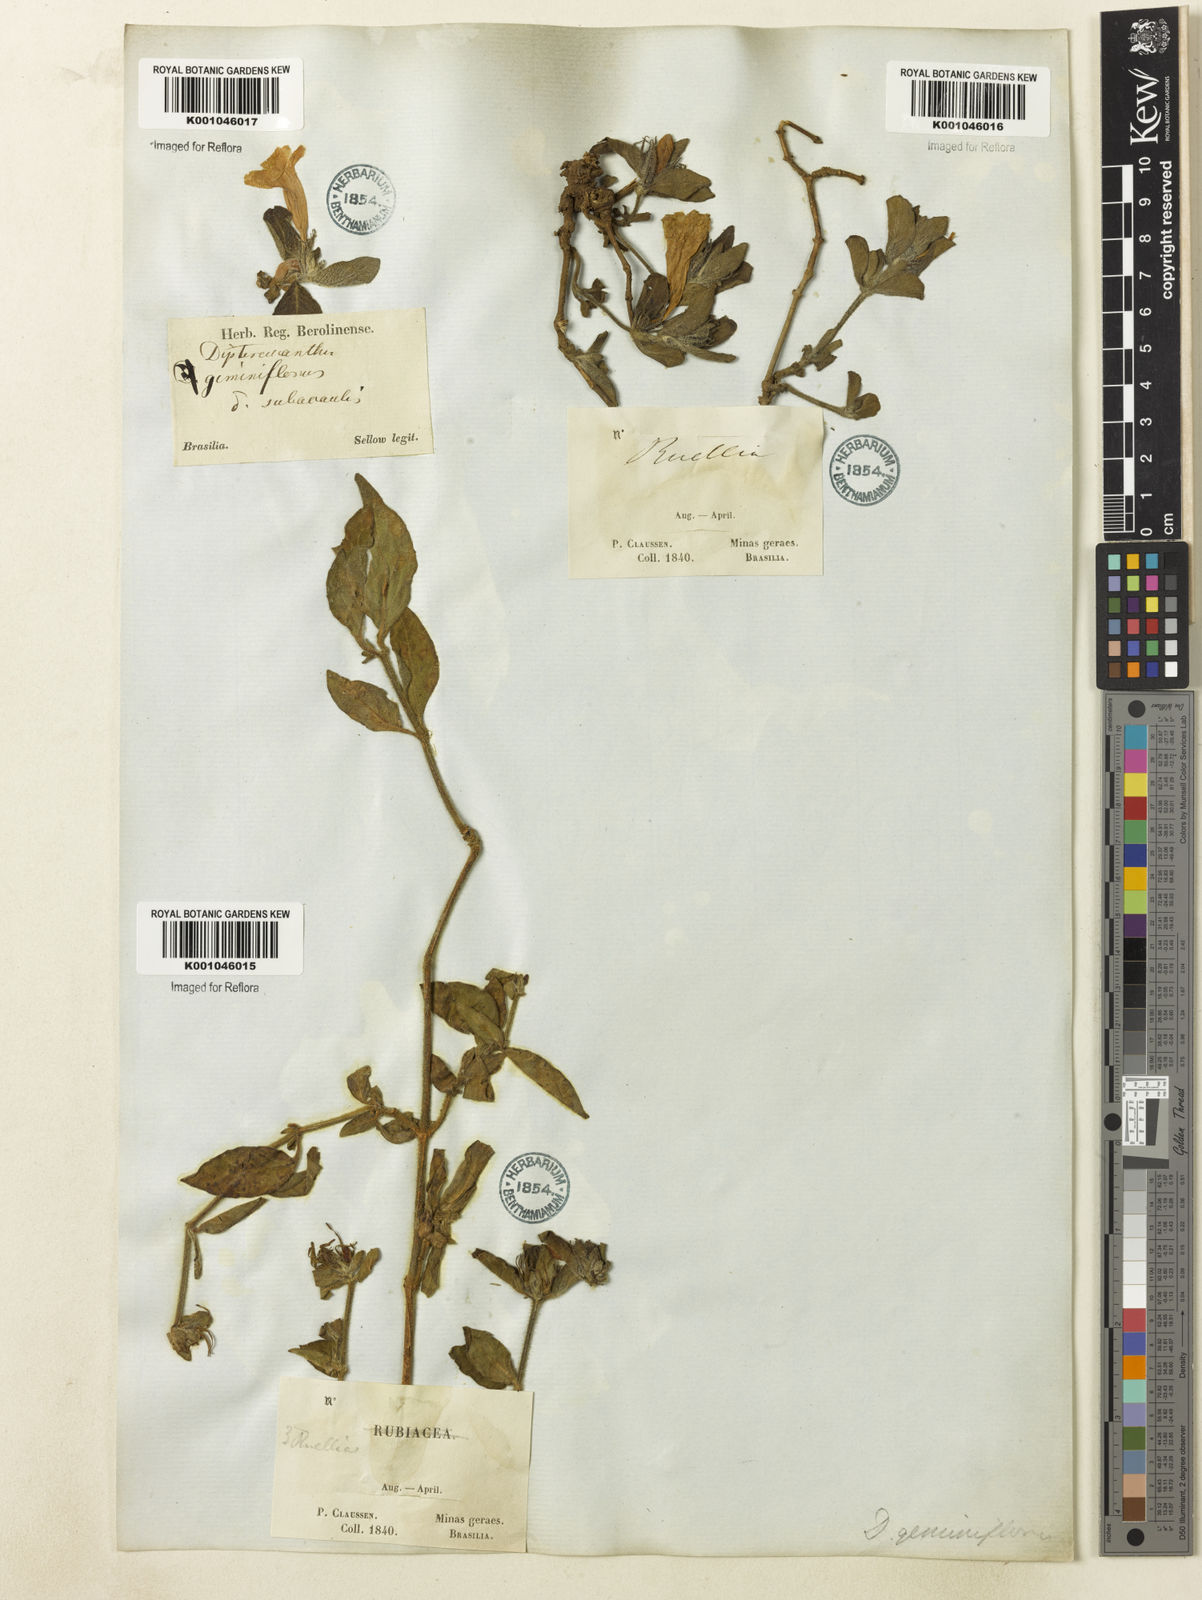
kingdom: Plantae
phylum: Tracheophyta
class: Magnoliopsida
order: Lamiales
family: Acanthaceae
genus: Ruellia
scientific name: Ruellia geminiflora
